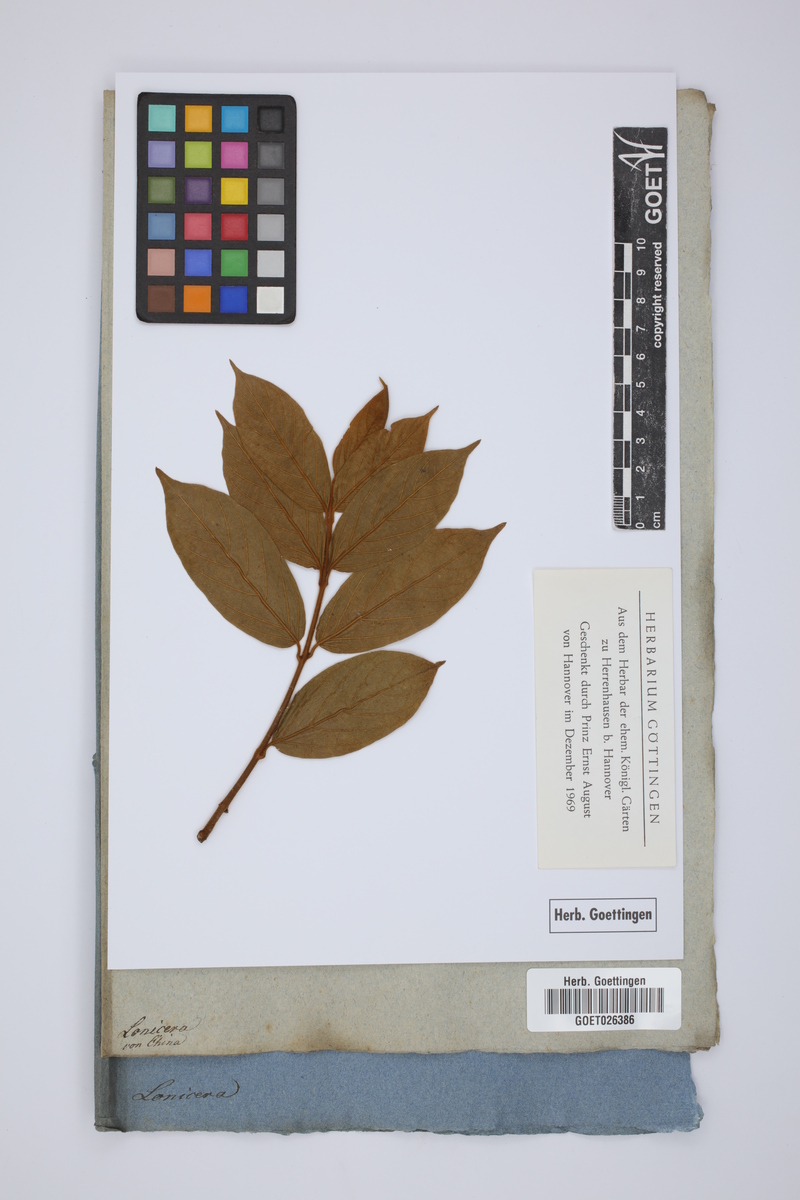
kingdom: Plantae
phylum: Tracheophyta
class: Magnoliopsida
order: Dipsacales
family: Caprifoliaceae
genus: Lonicera
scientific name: Lonicera
